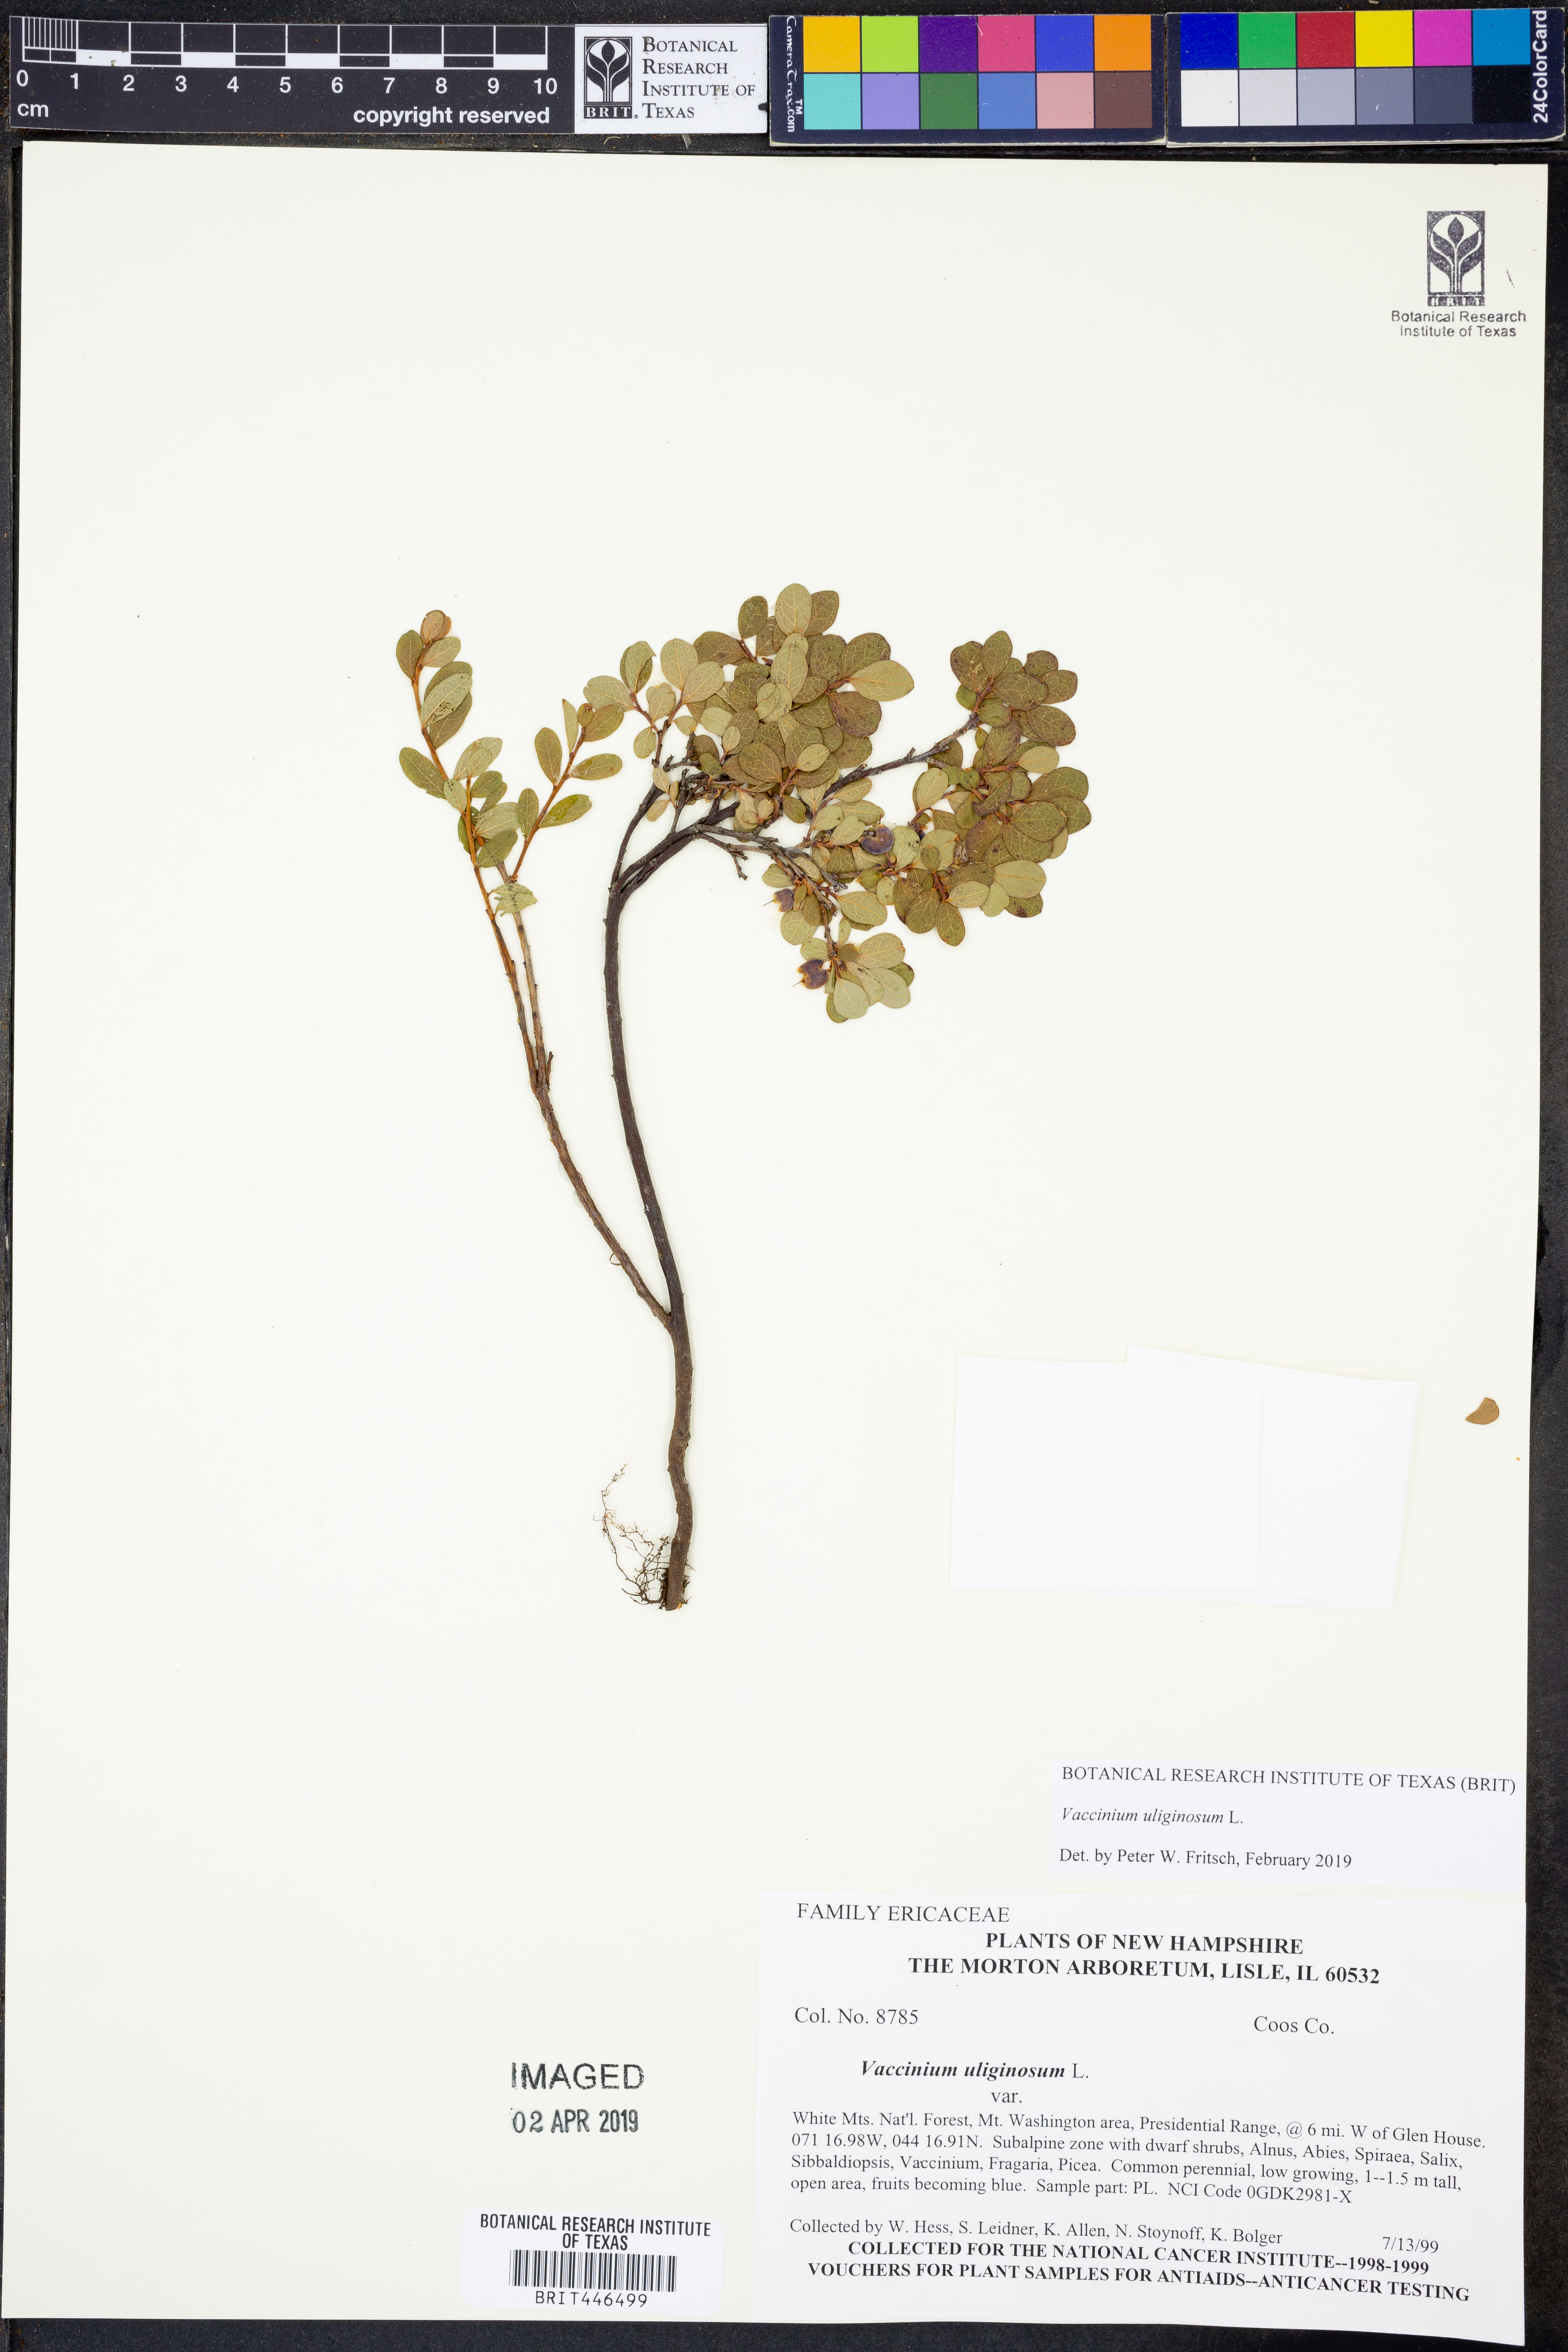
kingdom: Plantae
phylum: Tracheophyta
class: Magnoliopsida
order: Ericales
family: Ericaceae
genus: Vaccinium
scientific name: Vaccinium uliginosum
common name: Bog bilberry
